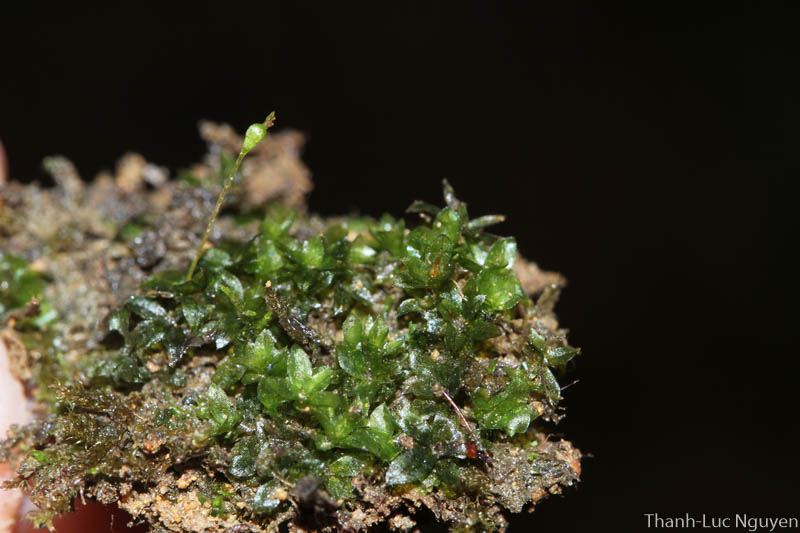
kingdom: Plantae
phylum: Bryophyta
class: Bryopsida
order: Dicranales
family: Fissidentaceae
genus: Fissidens
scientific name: Fissidens
